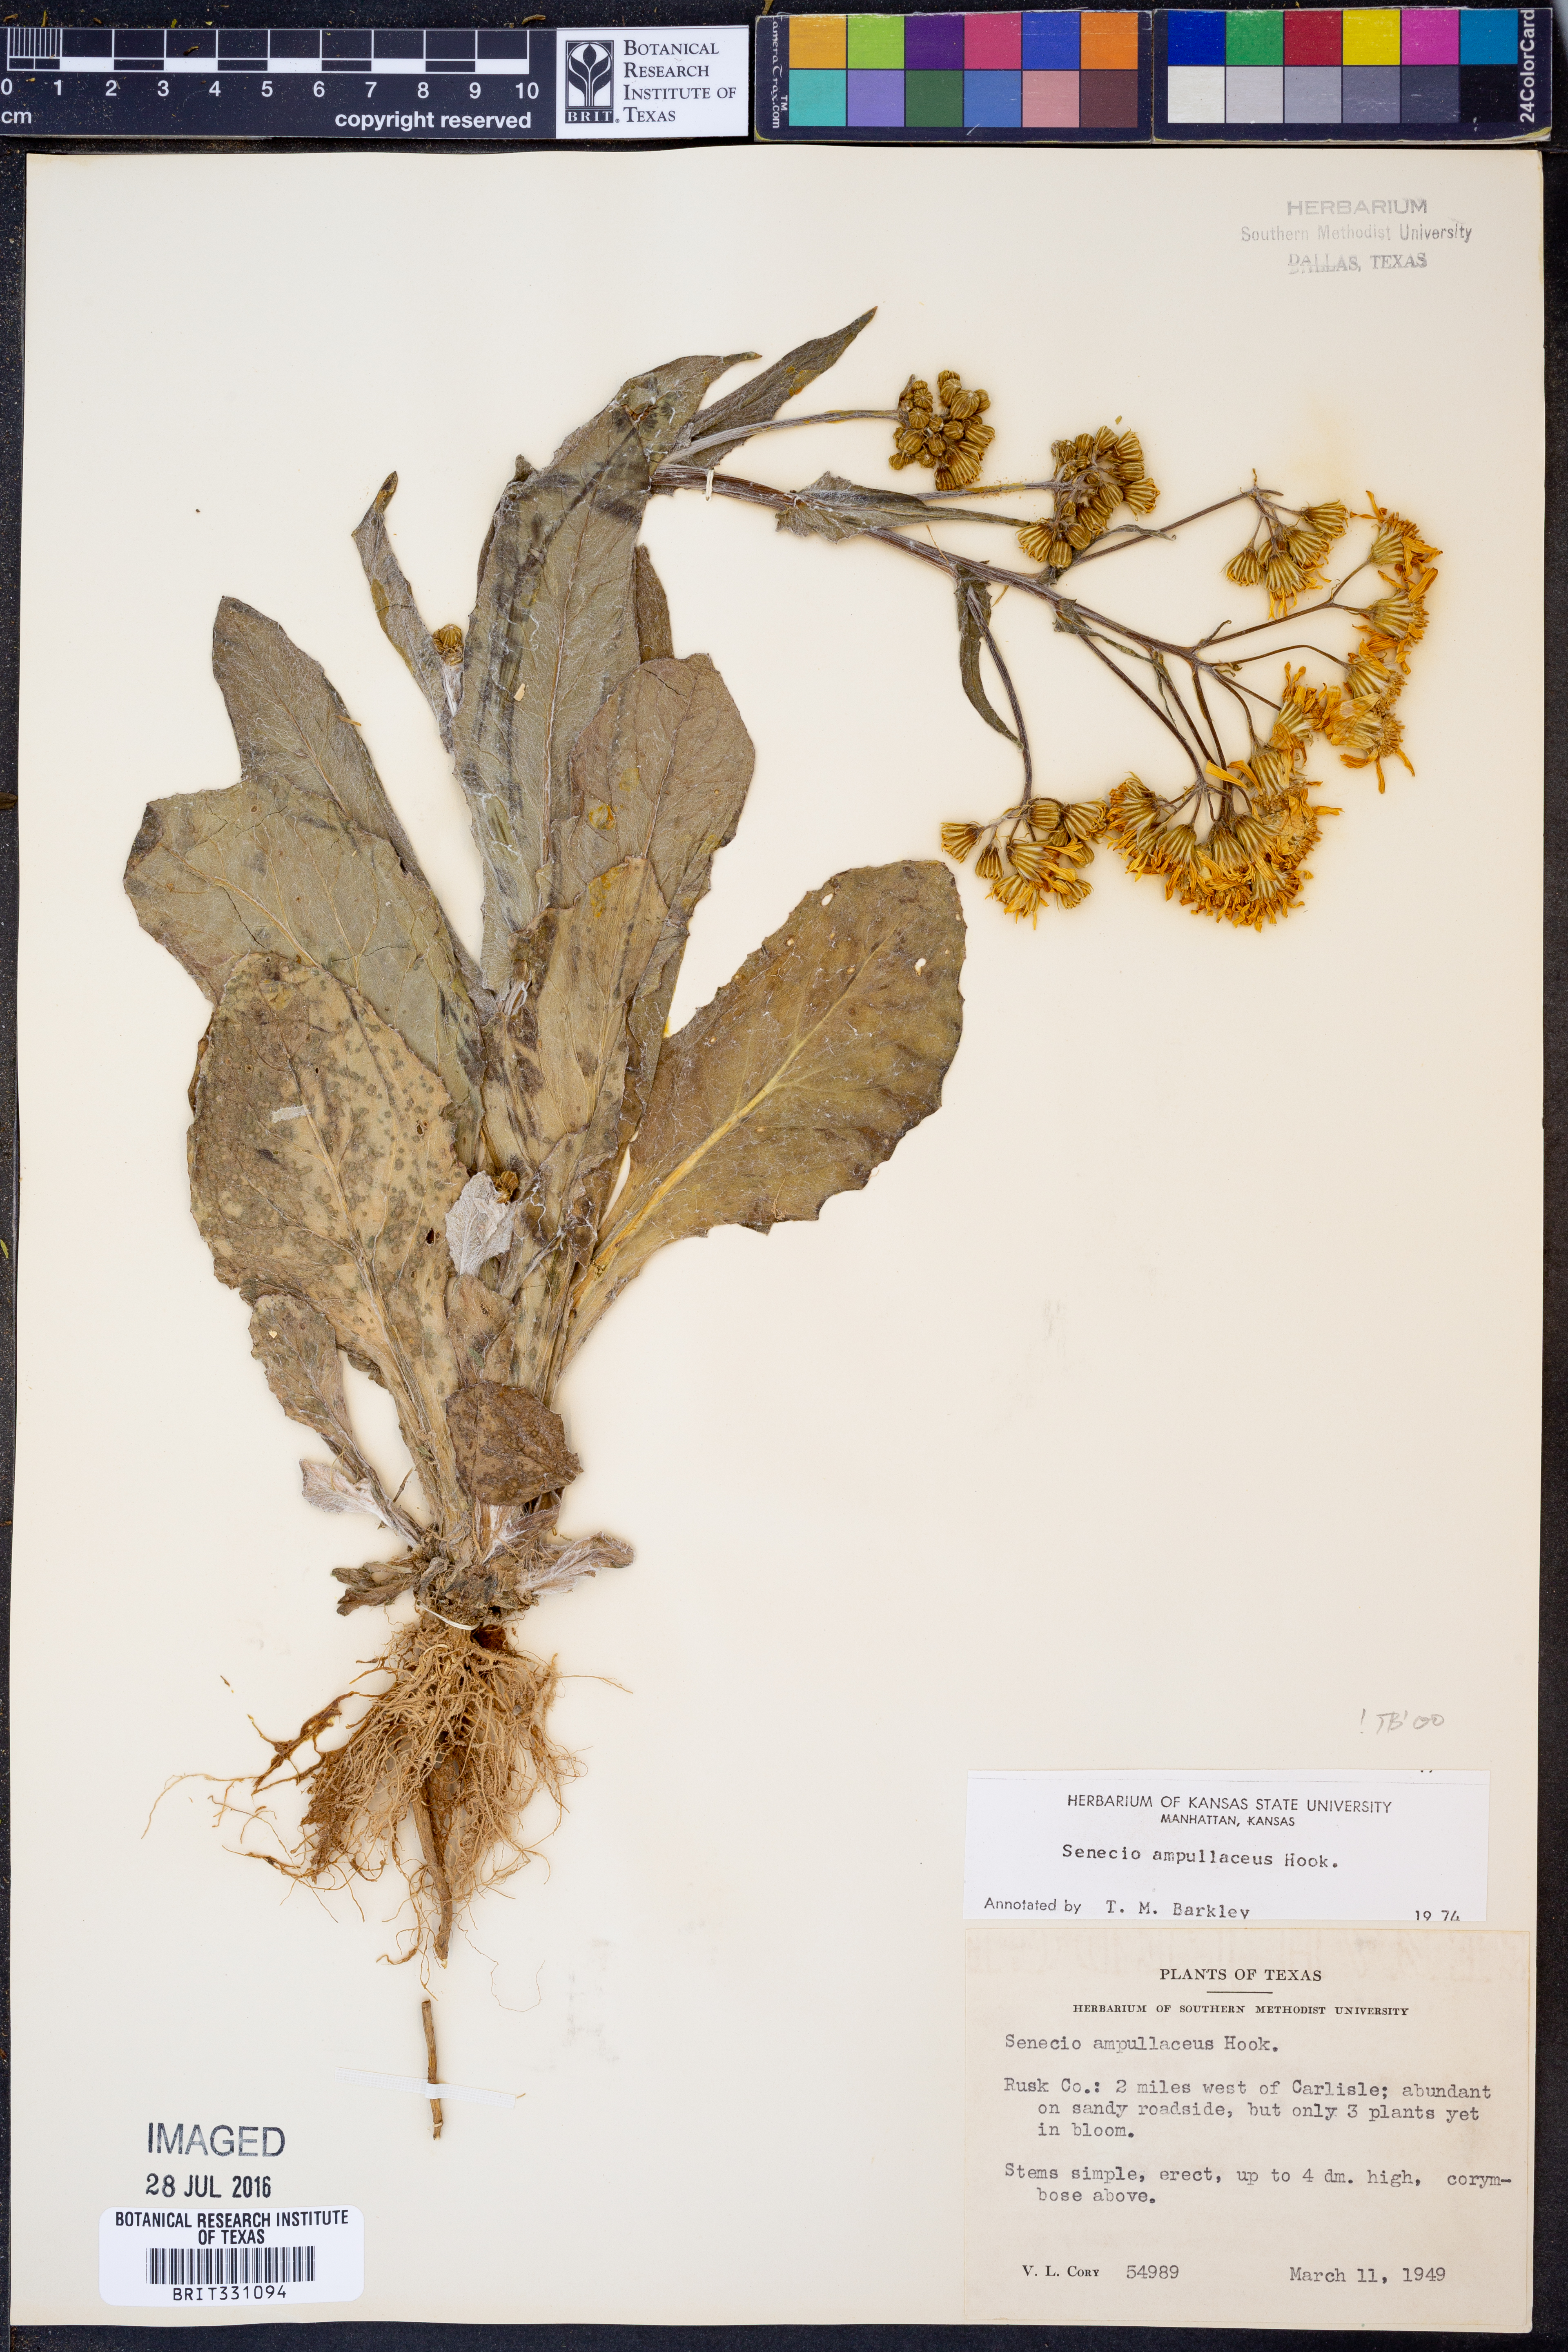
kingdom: Plantae
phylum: Tracheophyta
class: Magnoliopsida
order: Asterales
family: Asteraceae
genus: Senecio
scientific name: Senecio ampullaceus
